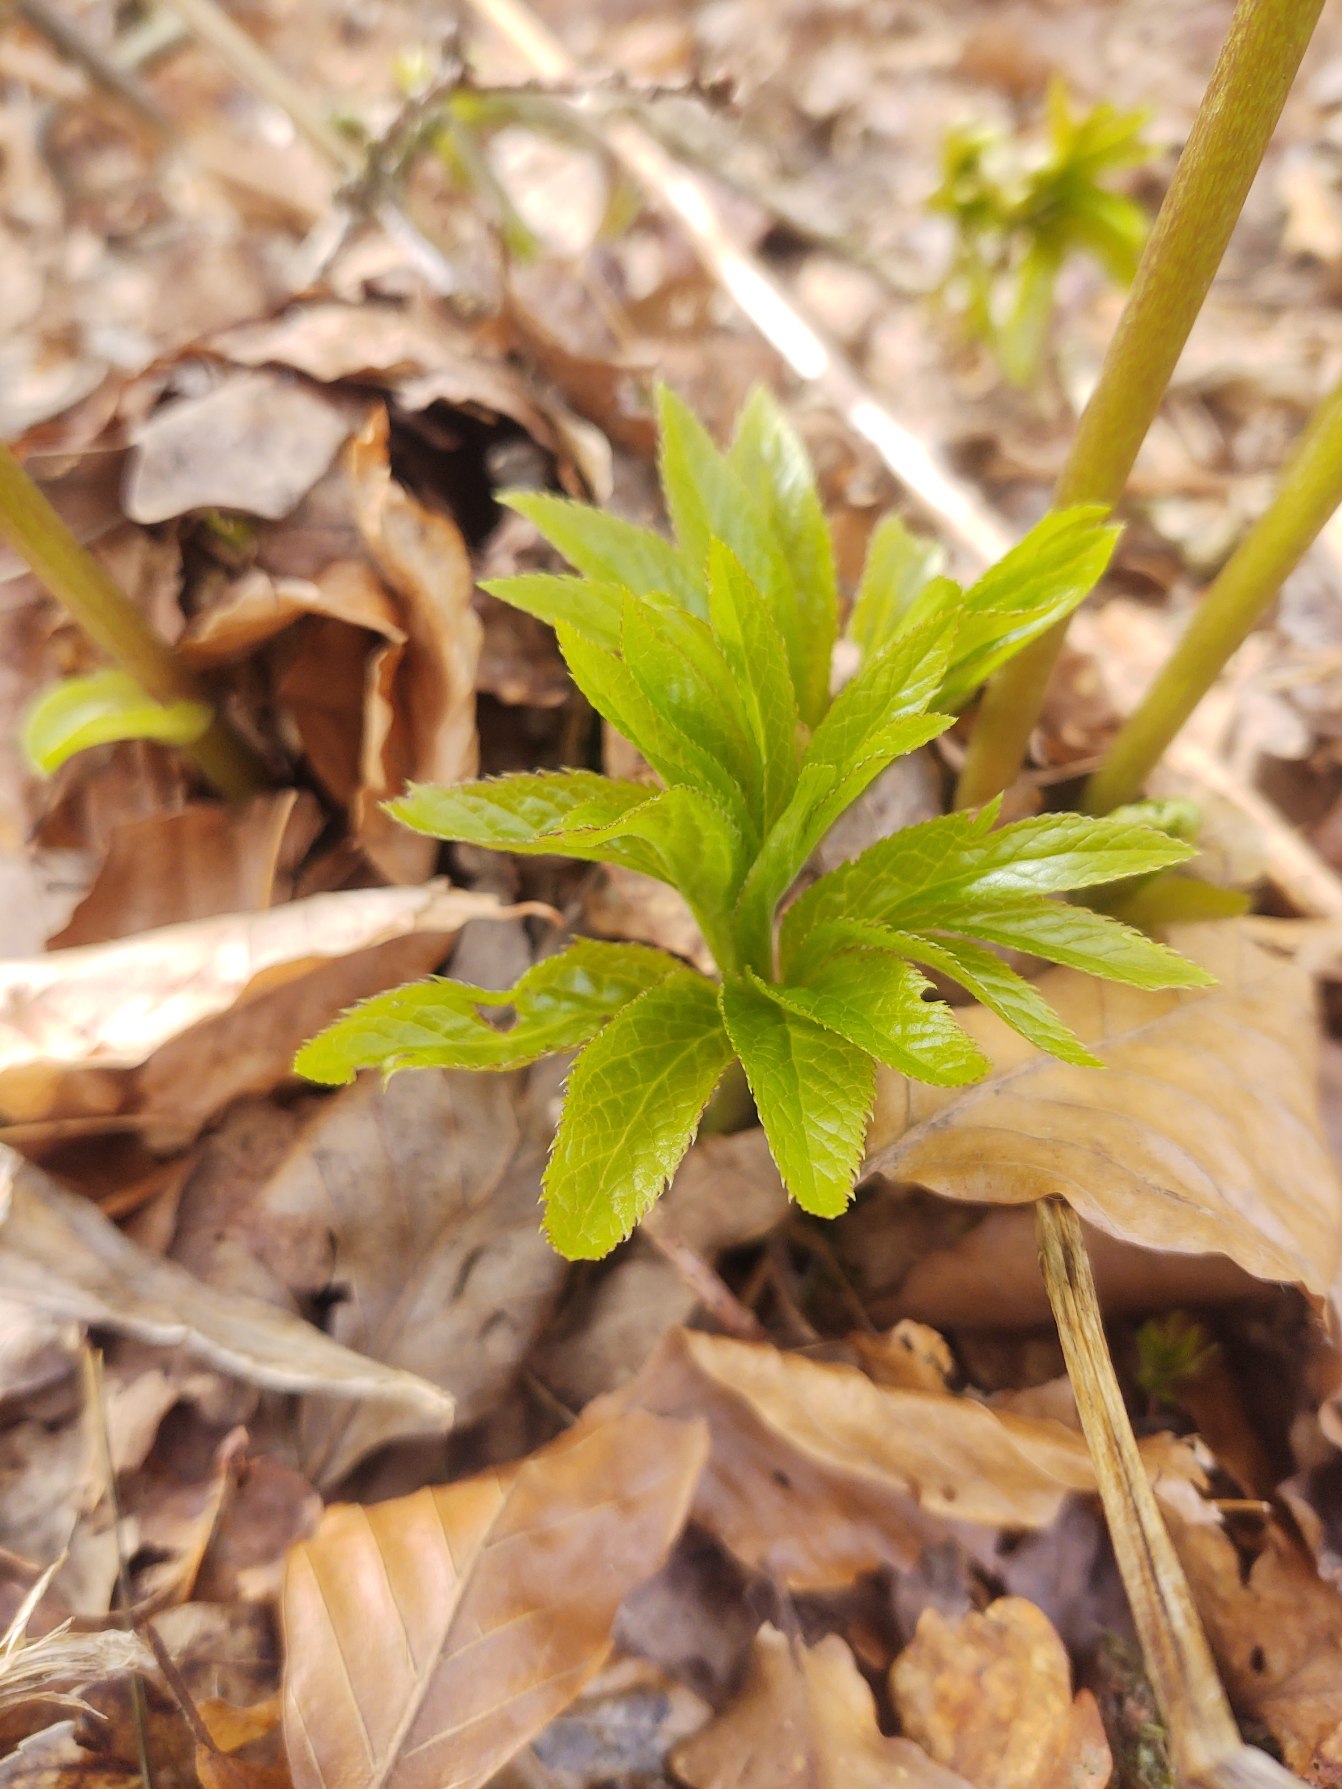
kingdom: Plantae
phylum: Tracheophyta
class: Magnoliopsida
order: Ranunculales
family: Ranunculaceae
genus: Helleborus
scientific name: Helleborus viridis
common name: Grøn julerose
